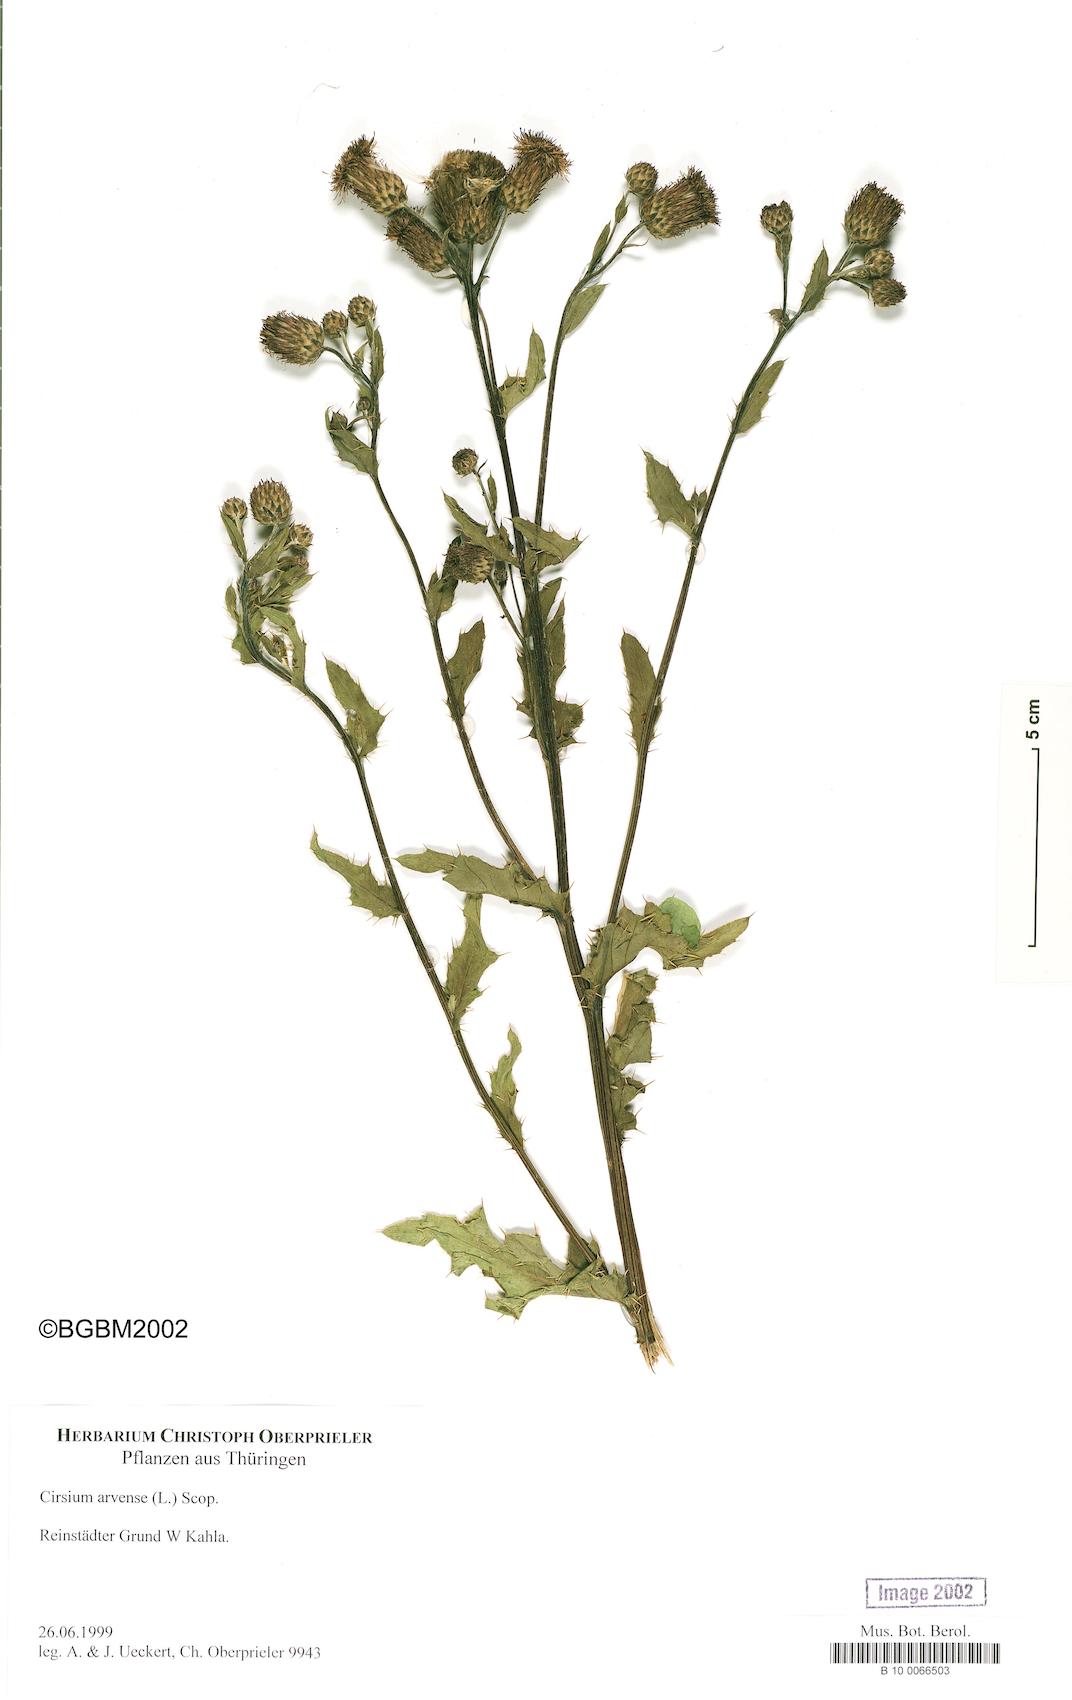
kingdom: Plantae
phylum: Tracheophyta
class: Magnoliopsida
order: Asterales
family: Asteraceae
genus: Cirsium
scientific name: Cirsium arvense
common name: Creeping thistle
